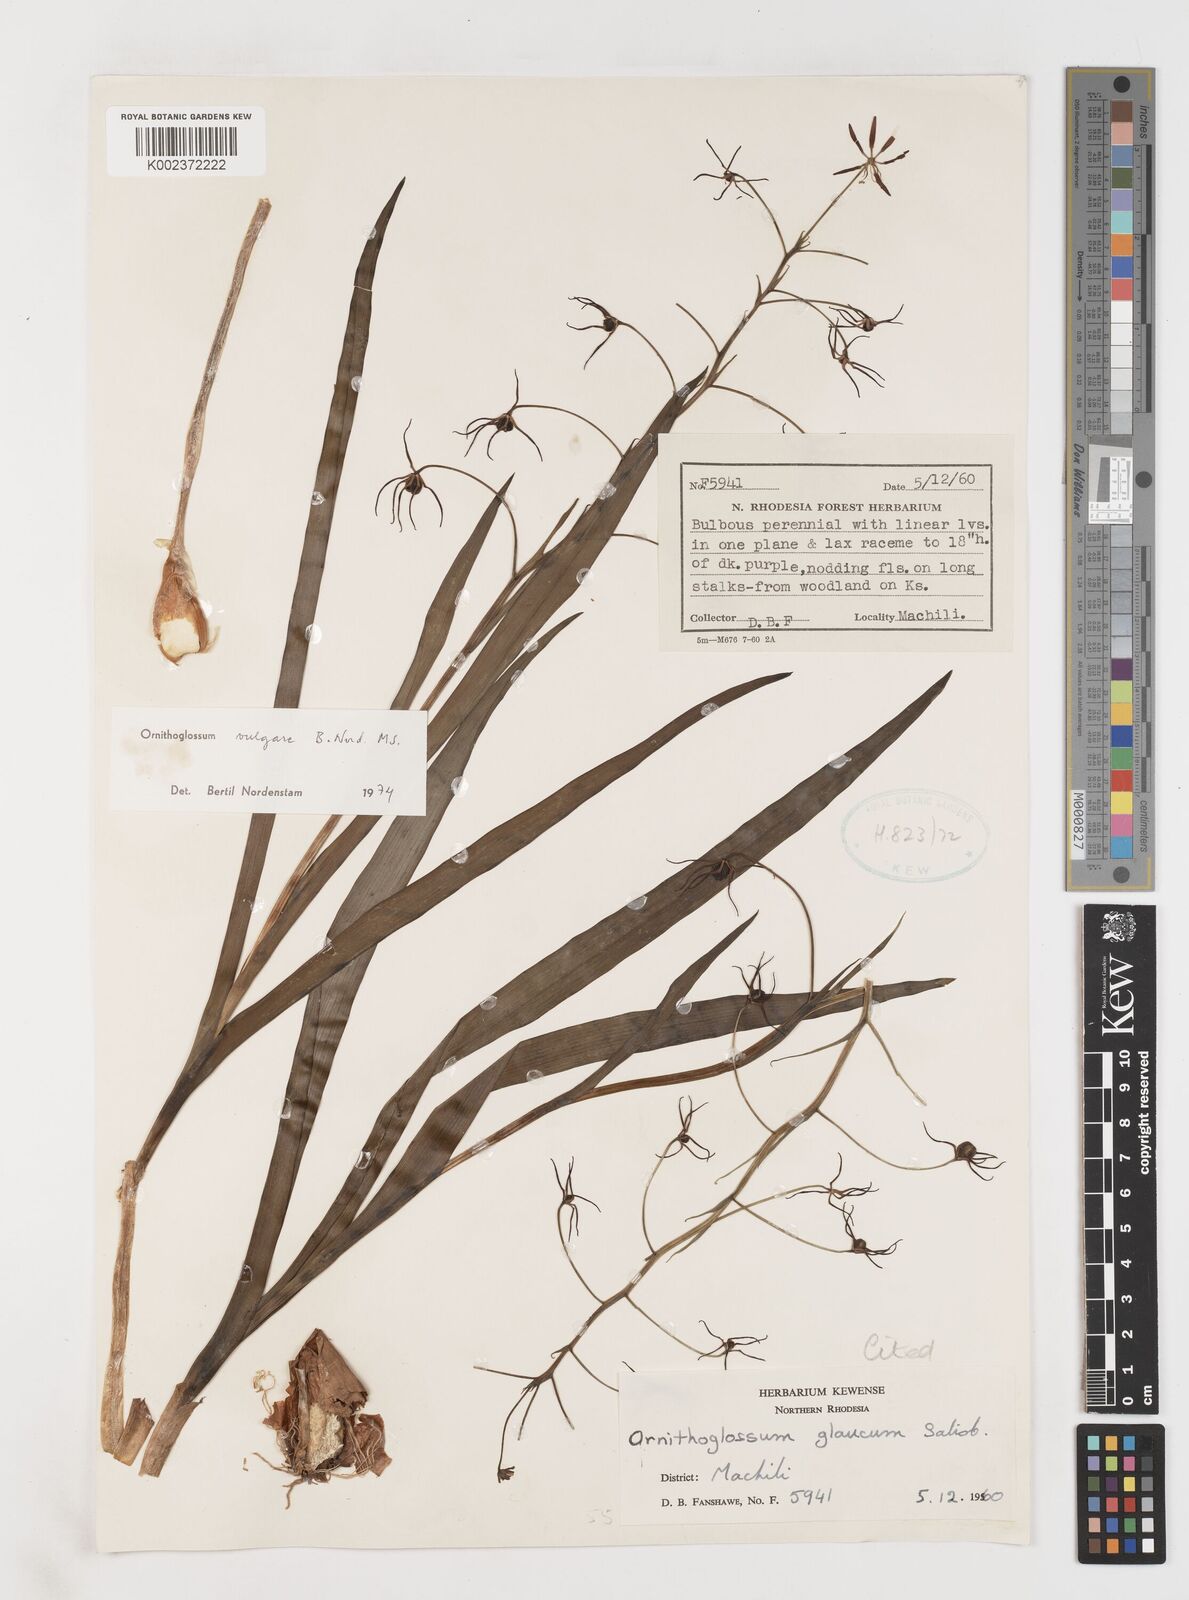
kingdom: Plantae
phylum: Tracheophyta
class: Liliopsida
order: Liliales
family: Colchicaceae
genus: Ornithoglossum
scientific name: Ornithoglossum vulgare
